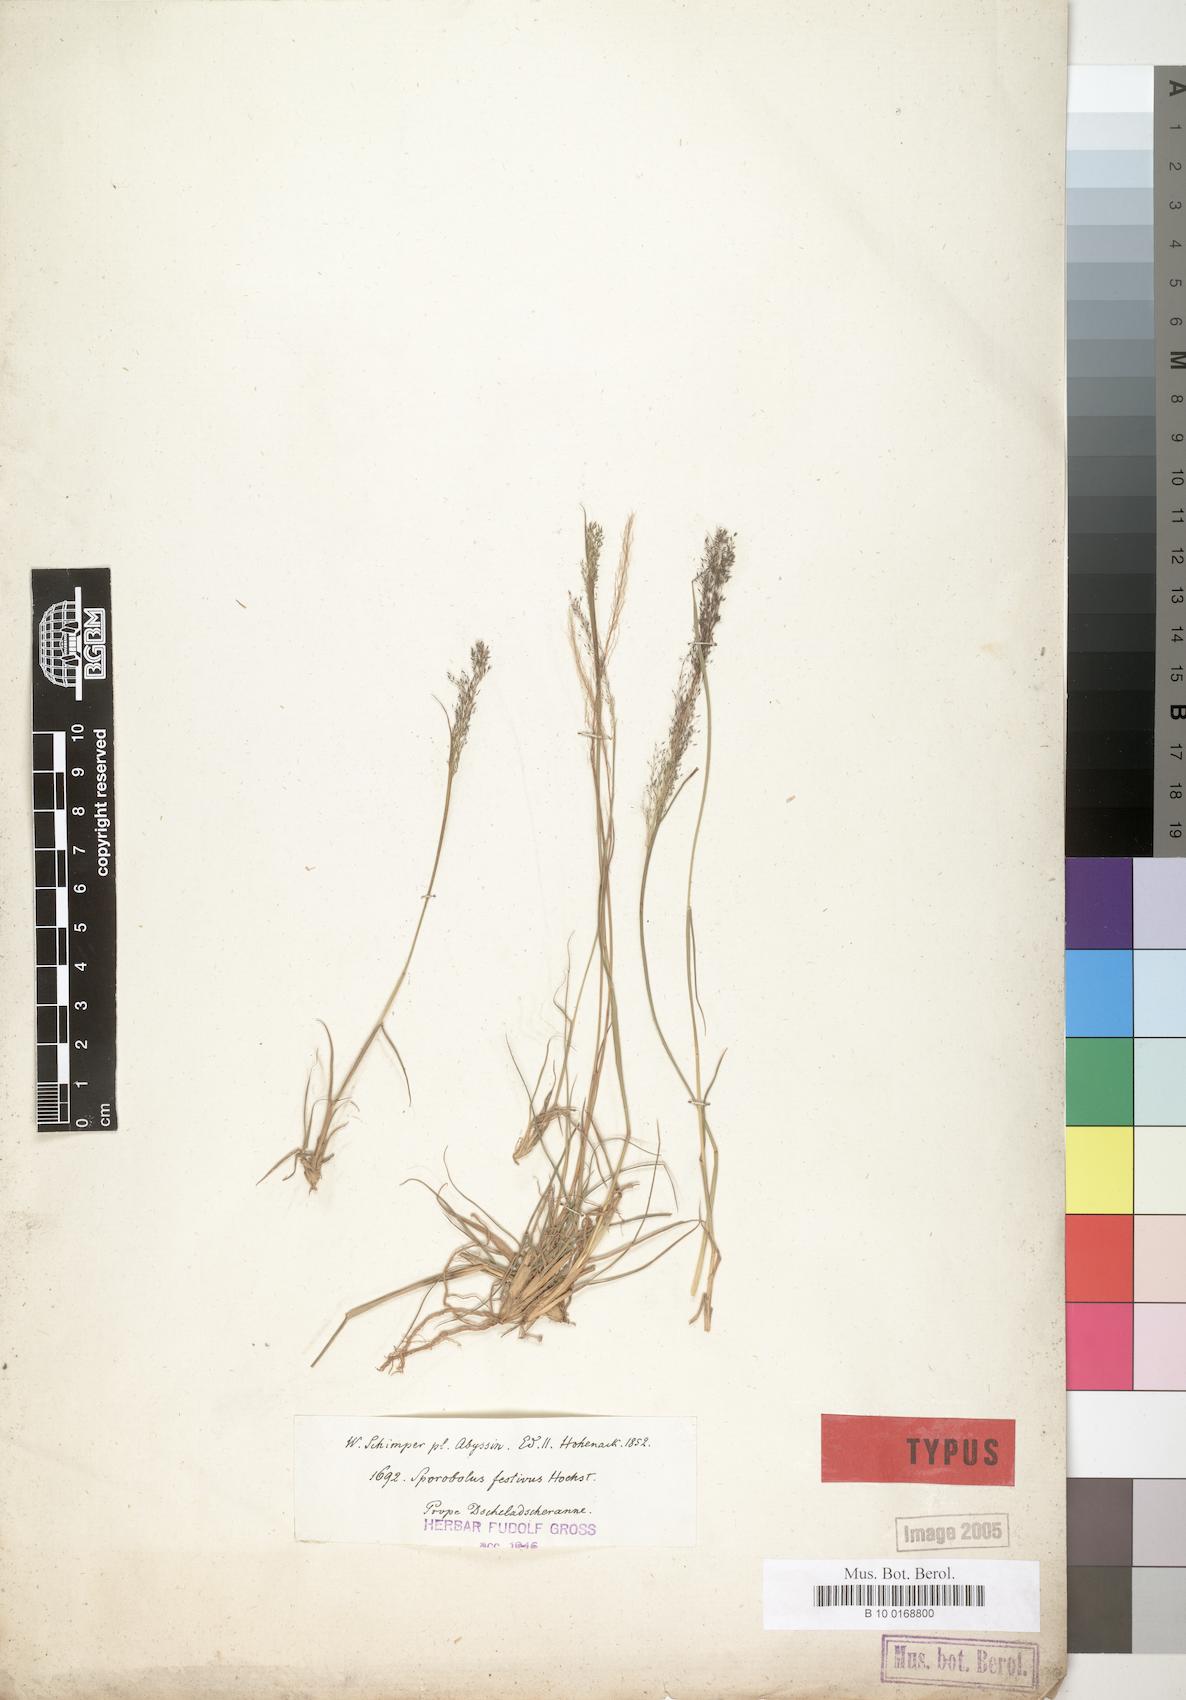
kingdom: Plantae
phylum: Tracheophyta
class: Liliopsida
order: Poales
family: Poaceae
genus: Sporobolus
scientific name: Sporobolus festivus
